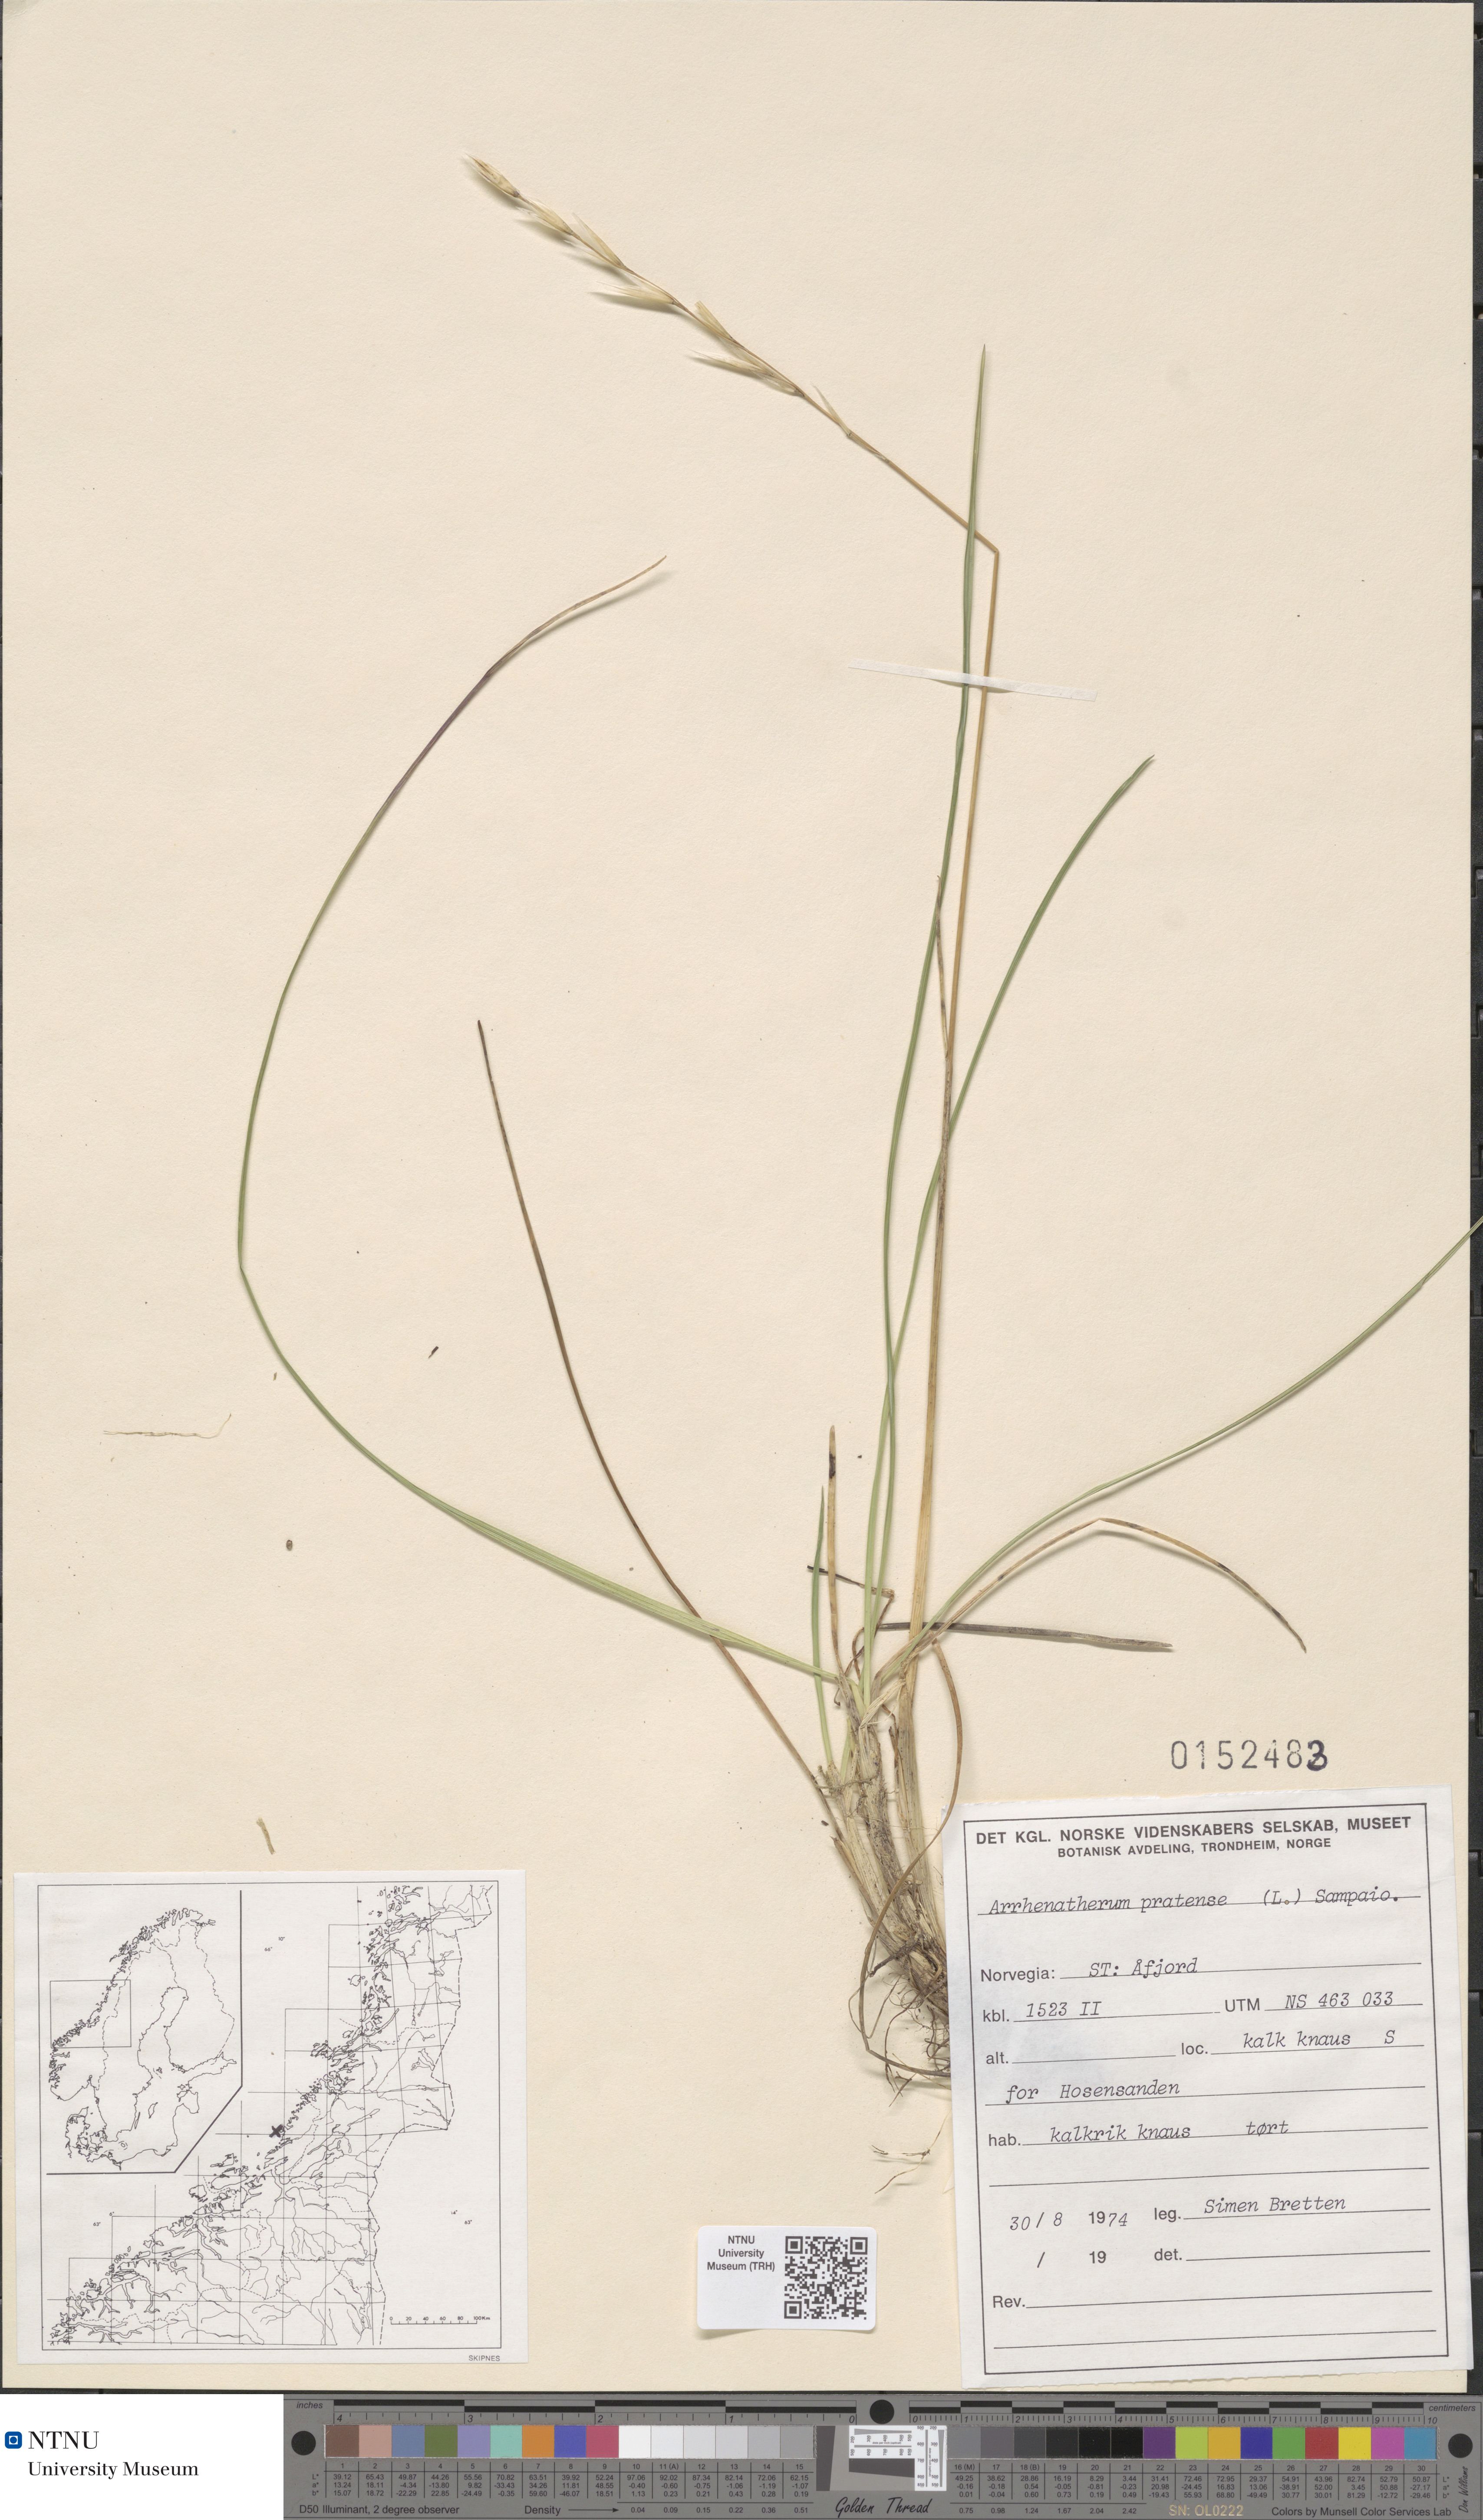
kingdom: Plantae
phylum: Tracheophyta
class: Liliopsida
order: Poales
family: Poaceae
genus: Helictochloa
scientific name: Helictochloa pratensis
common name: Meadow oat grass
